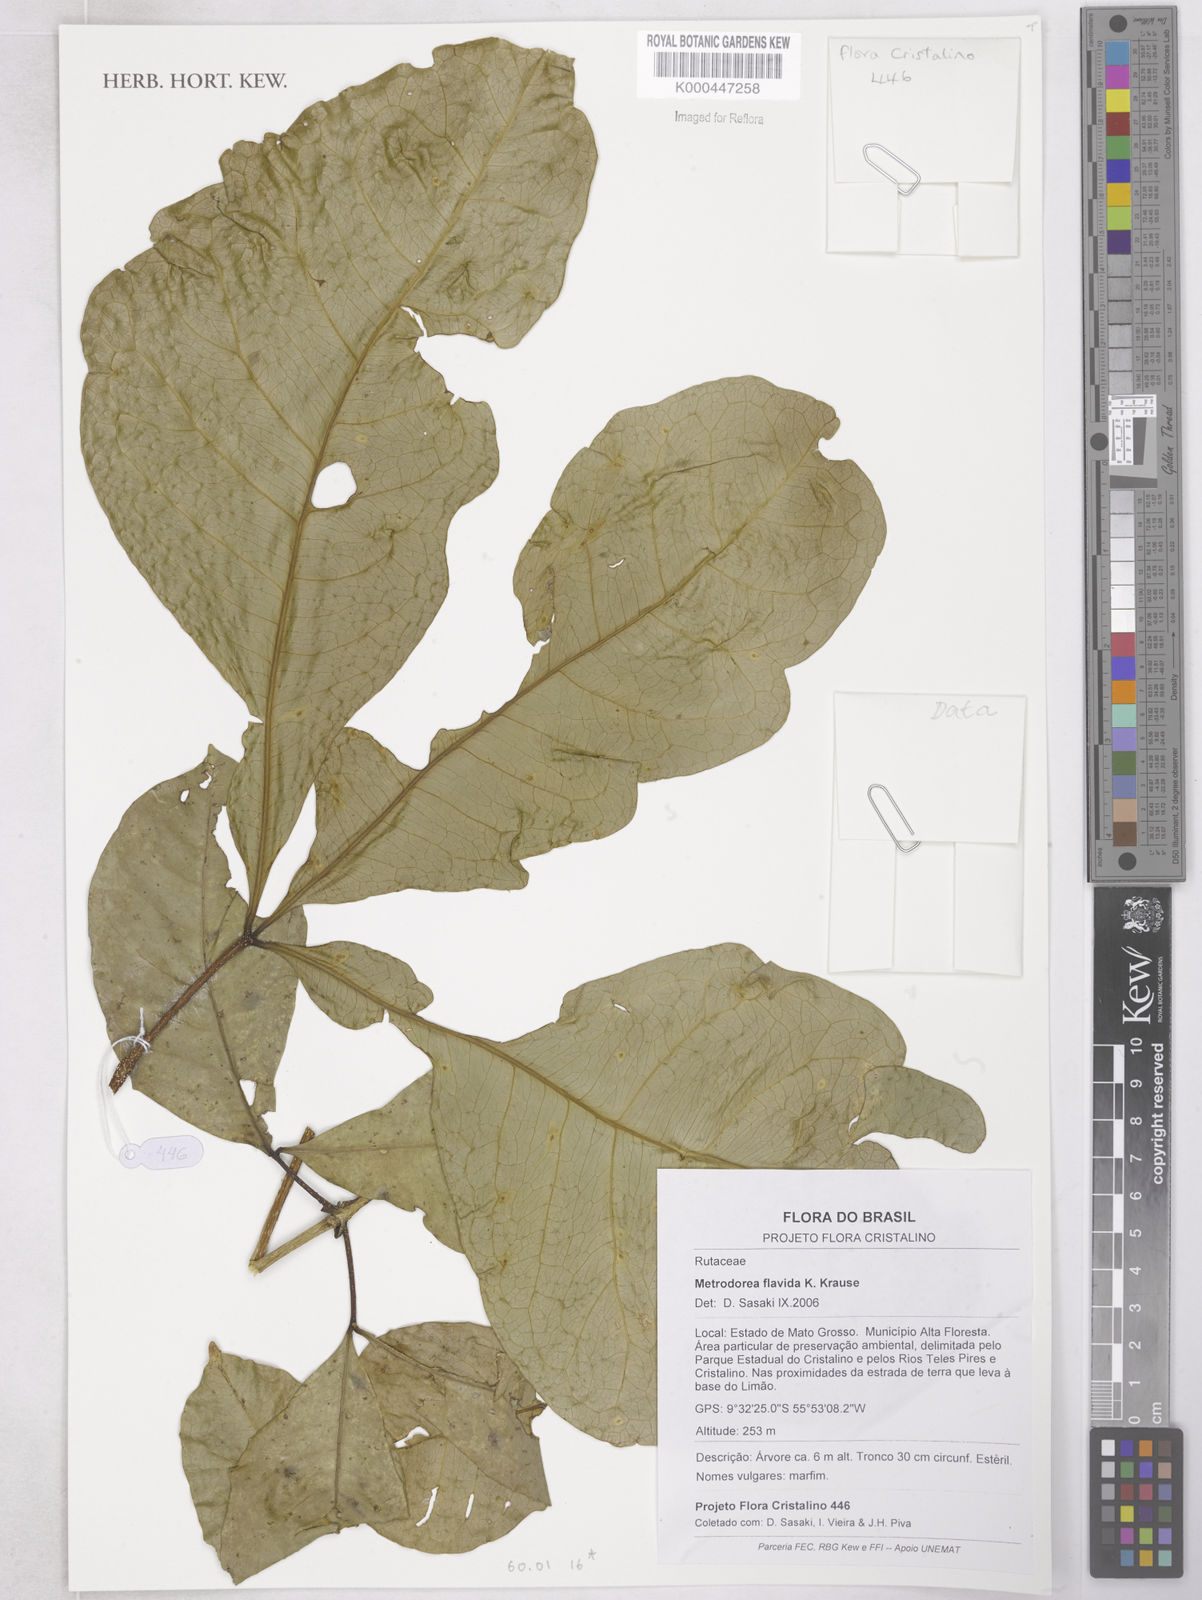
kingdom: Plantae
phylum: Tracheophyta
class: Magnoliopsida
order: Sapindales
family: Rutaceae
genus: Metrodorea
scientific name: Metrodorea flavida
